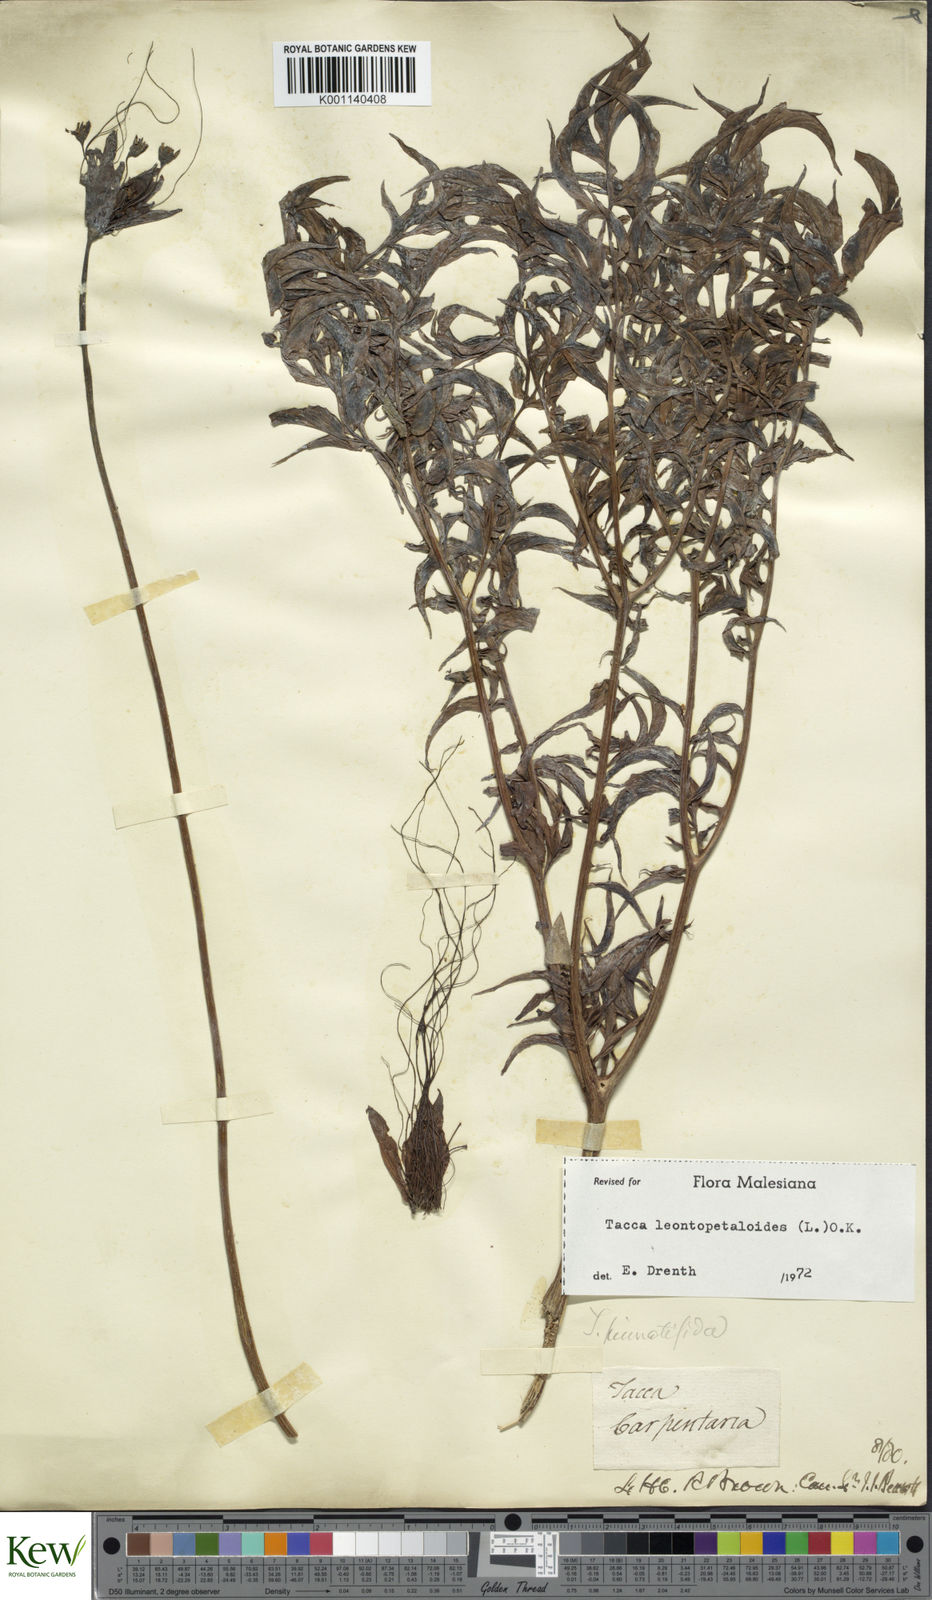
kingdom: Plantae
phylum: Tracheophyta
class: Liliopsida
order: Dioscoreales
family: Dioscoreaceae
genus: Tacca
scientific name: Tacca leontopetaloides
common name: Arrowroot
